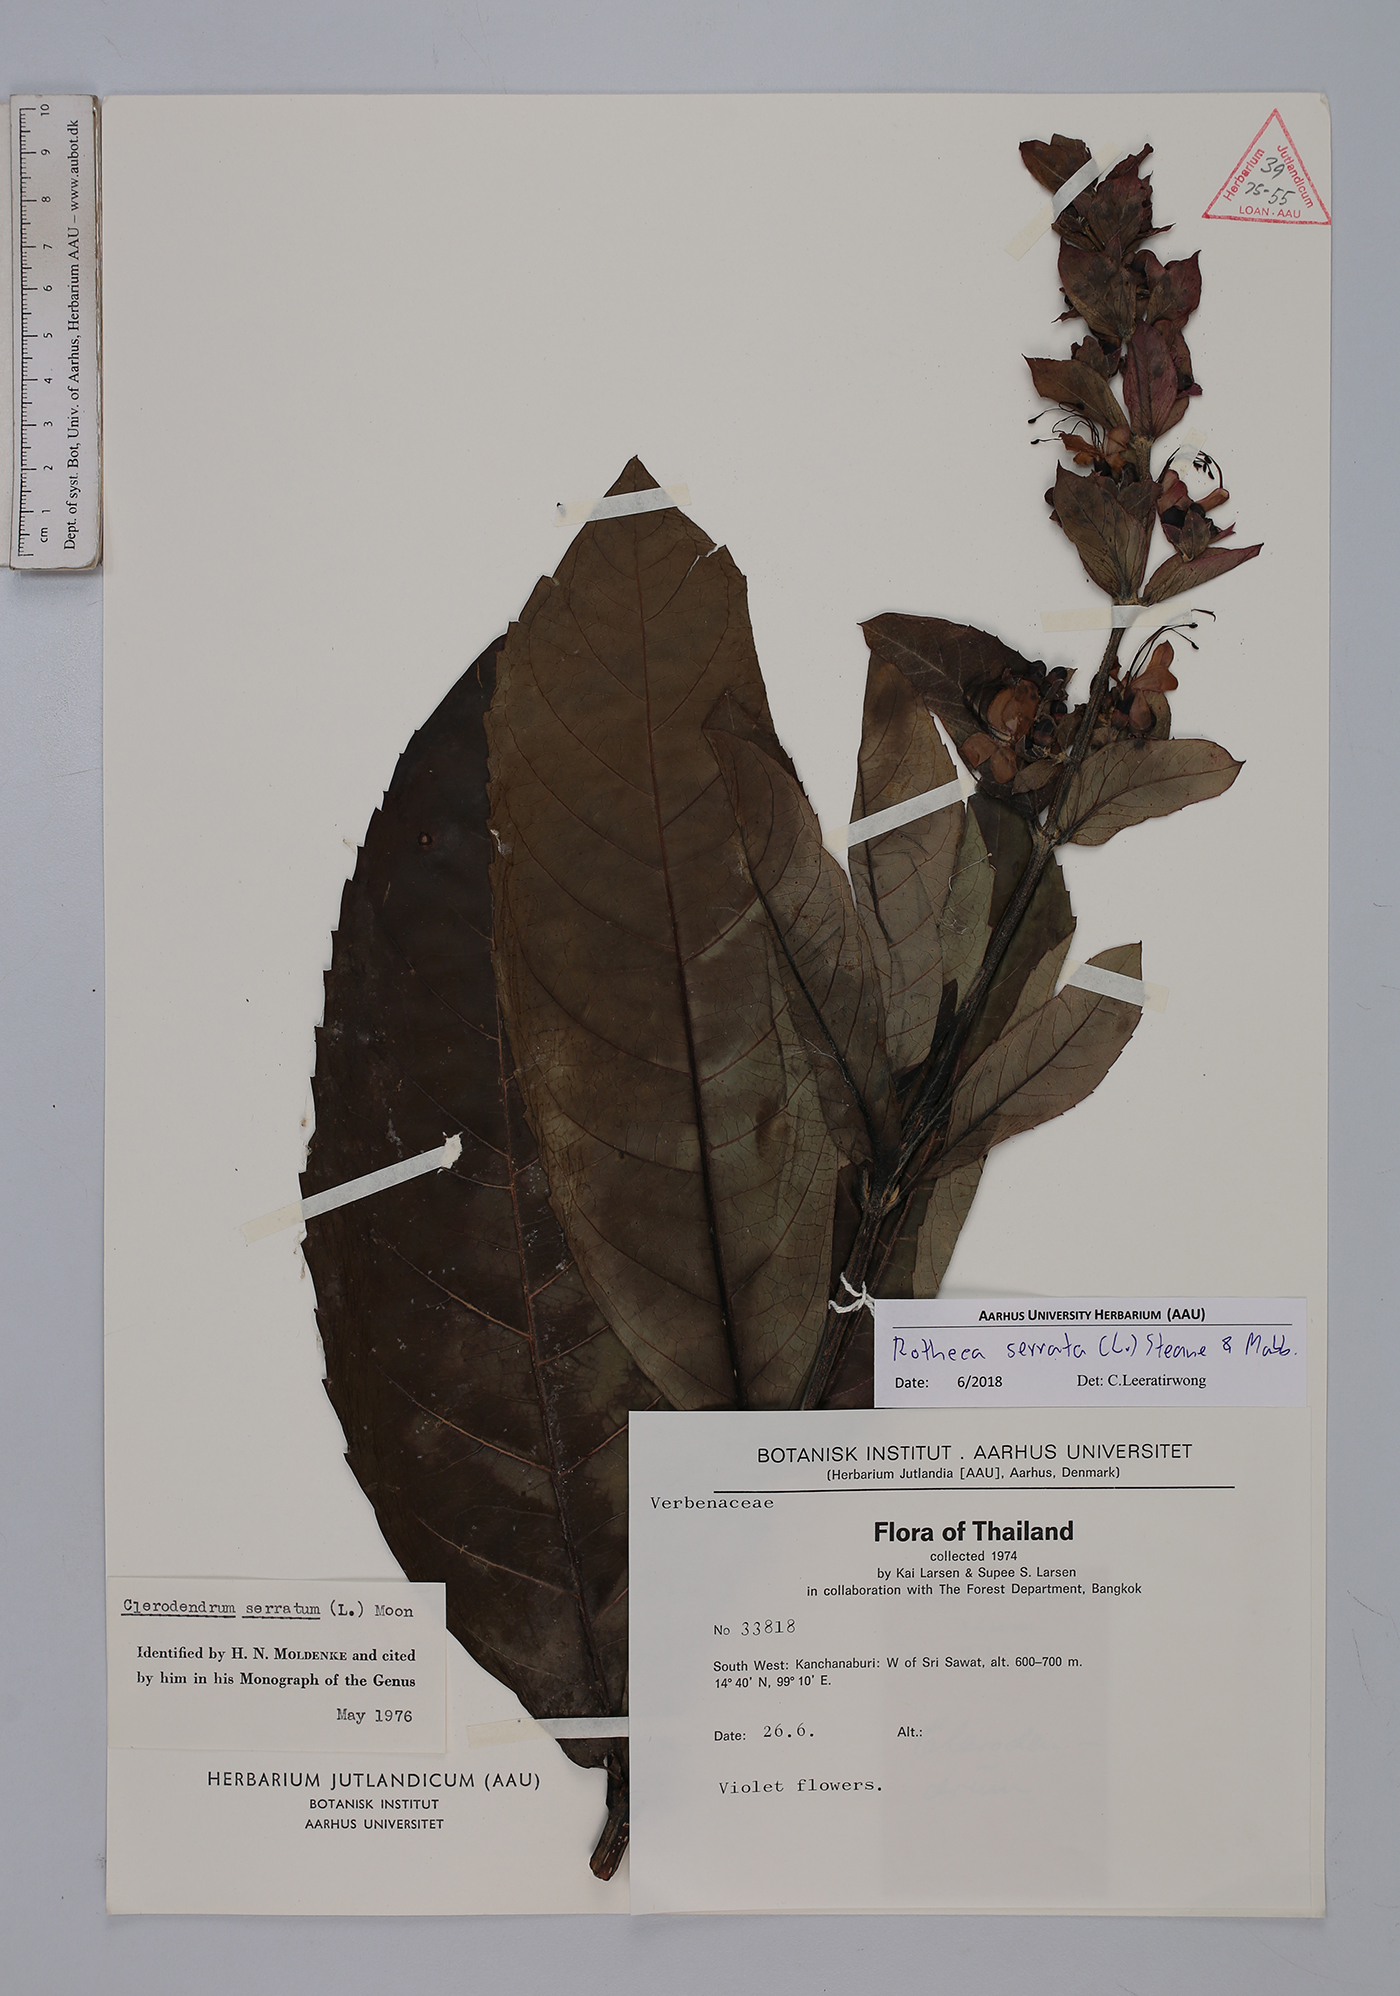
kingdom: Plantae
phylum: Tracheophyta
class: Magnoliopsida
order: Lamiales
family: Lamiaceae
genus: Rotheca
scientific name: Rotheca serrata
